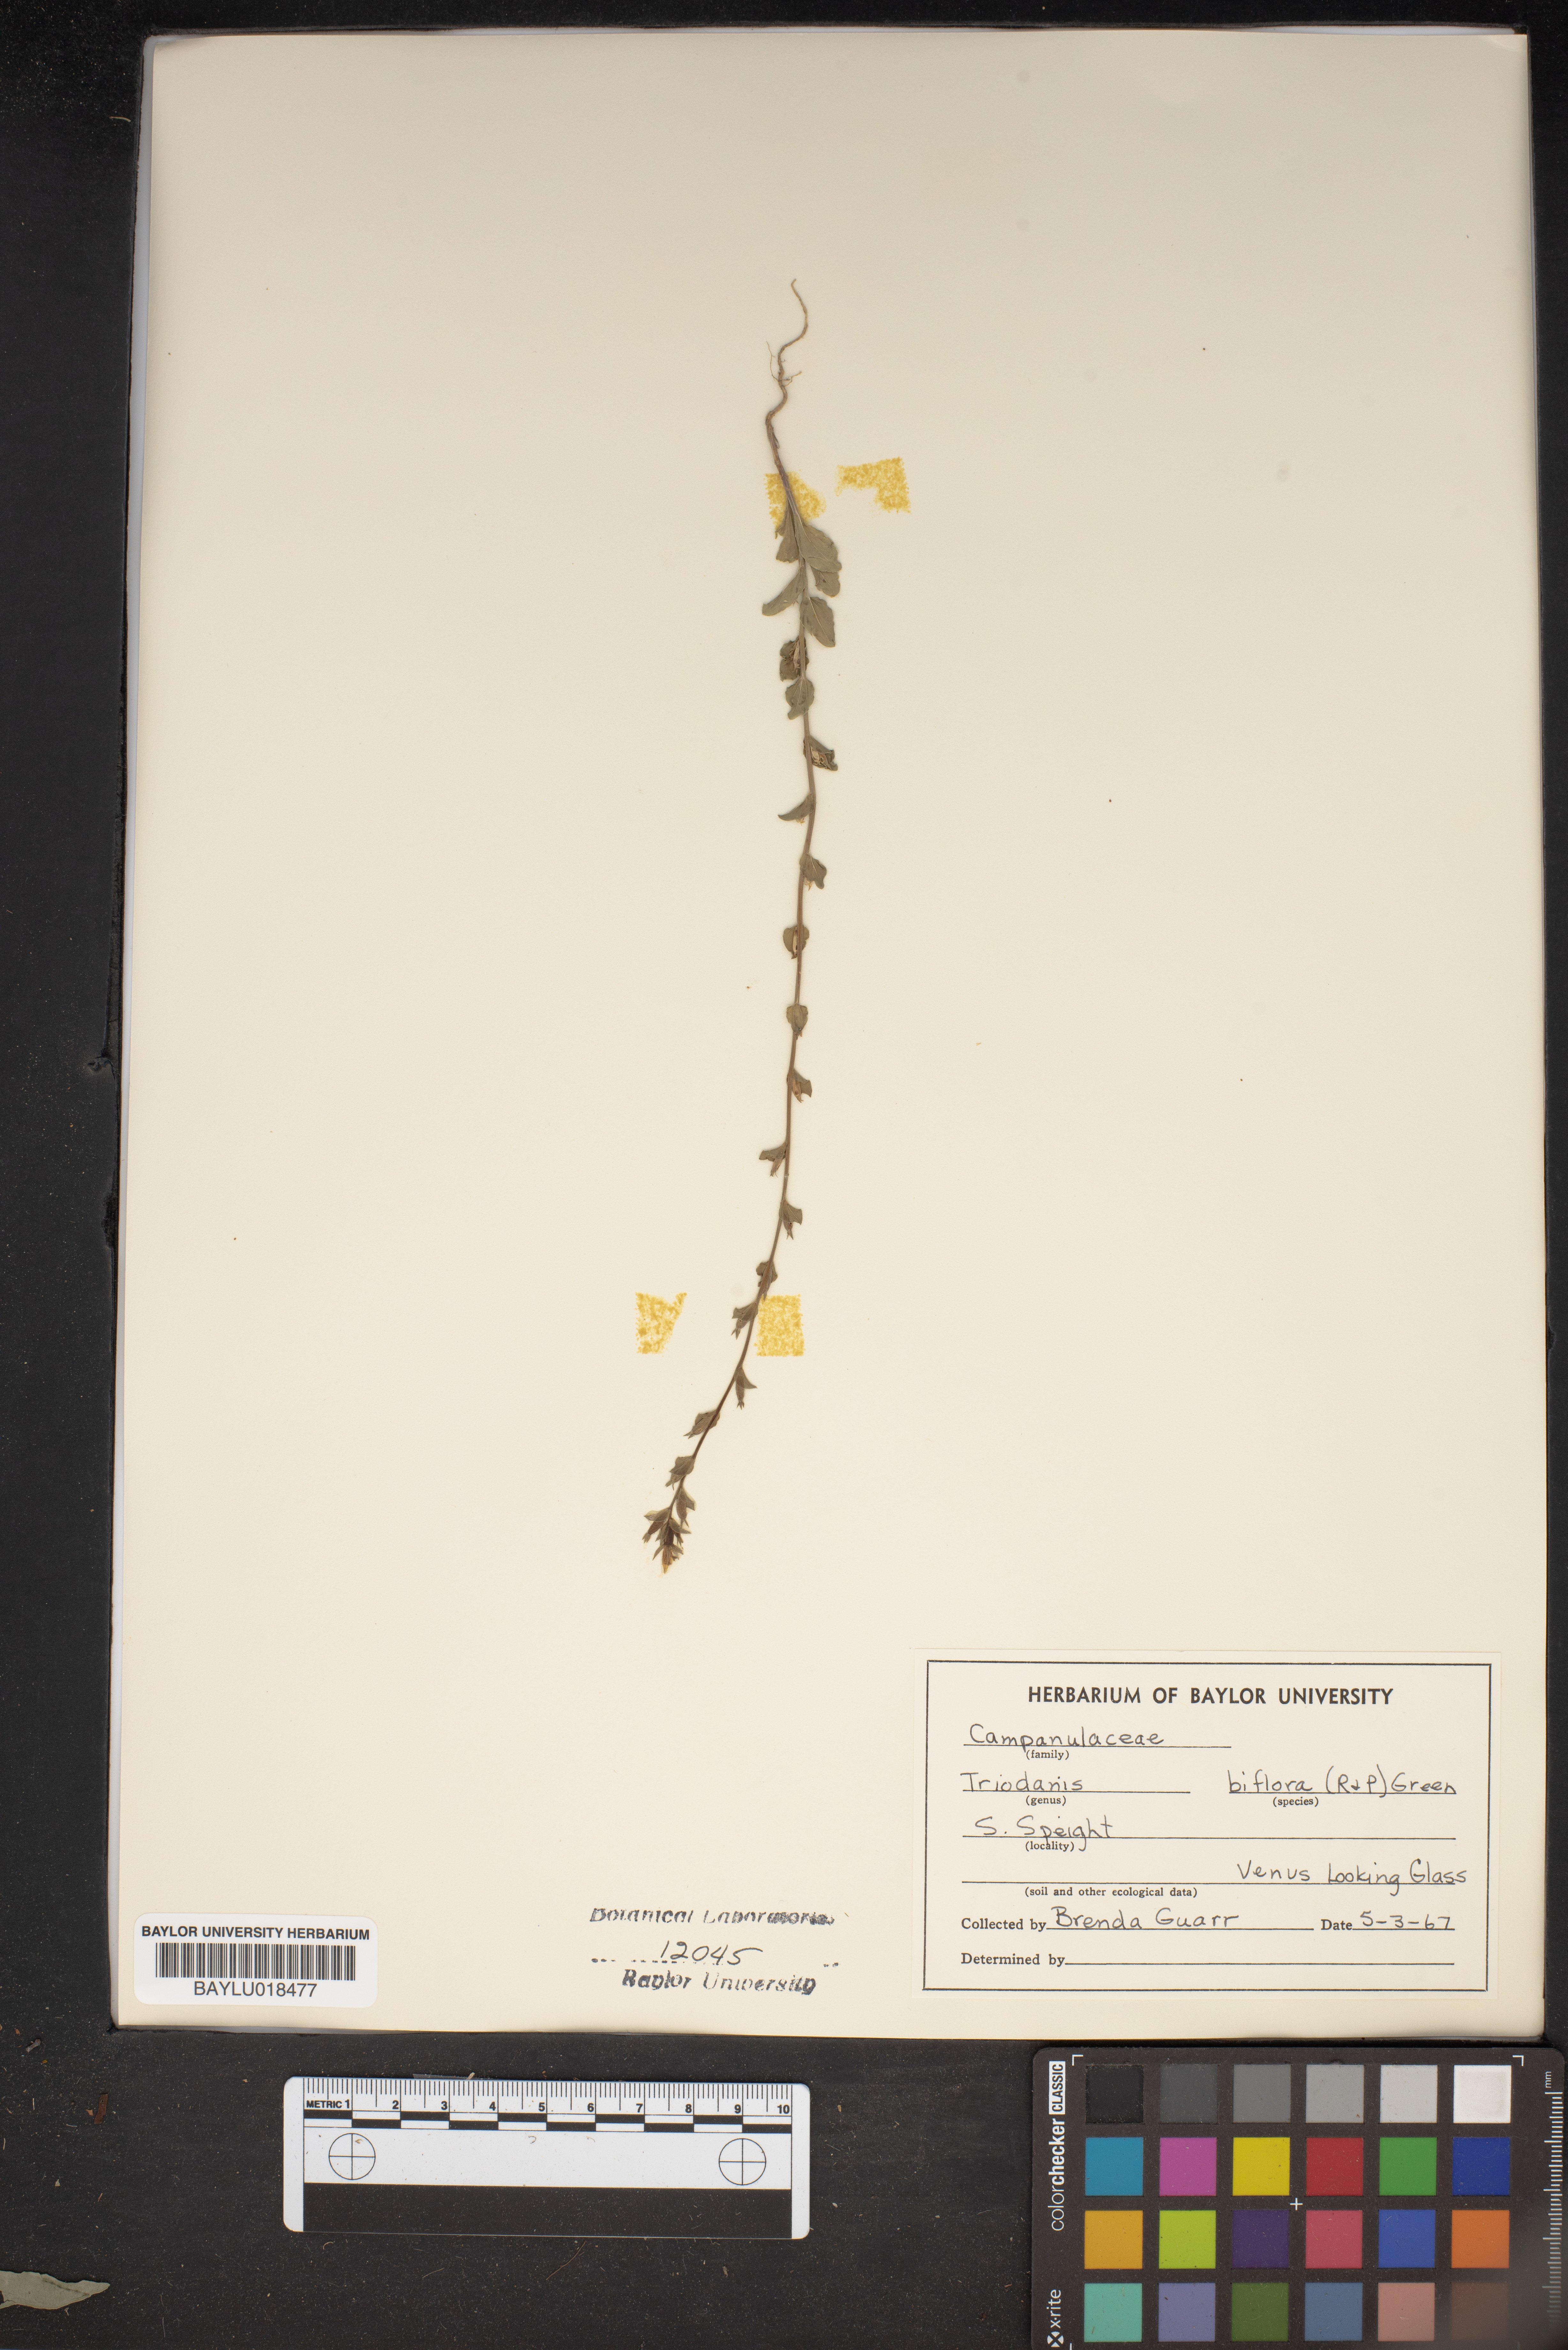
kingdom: Plantae
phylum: Tracheophyta
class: Magnoliopsida
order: Asterales
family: Campanulaceae
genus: Triodanis
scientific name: Triodanis perfoliata
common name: Clasping venus' looking-glass
